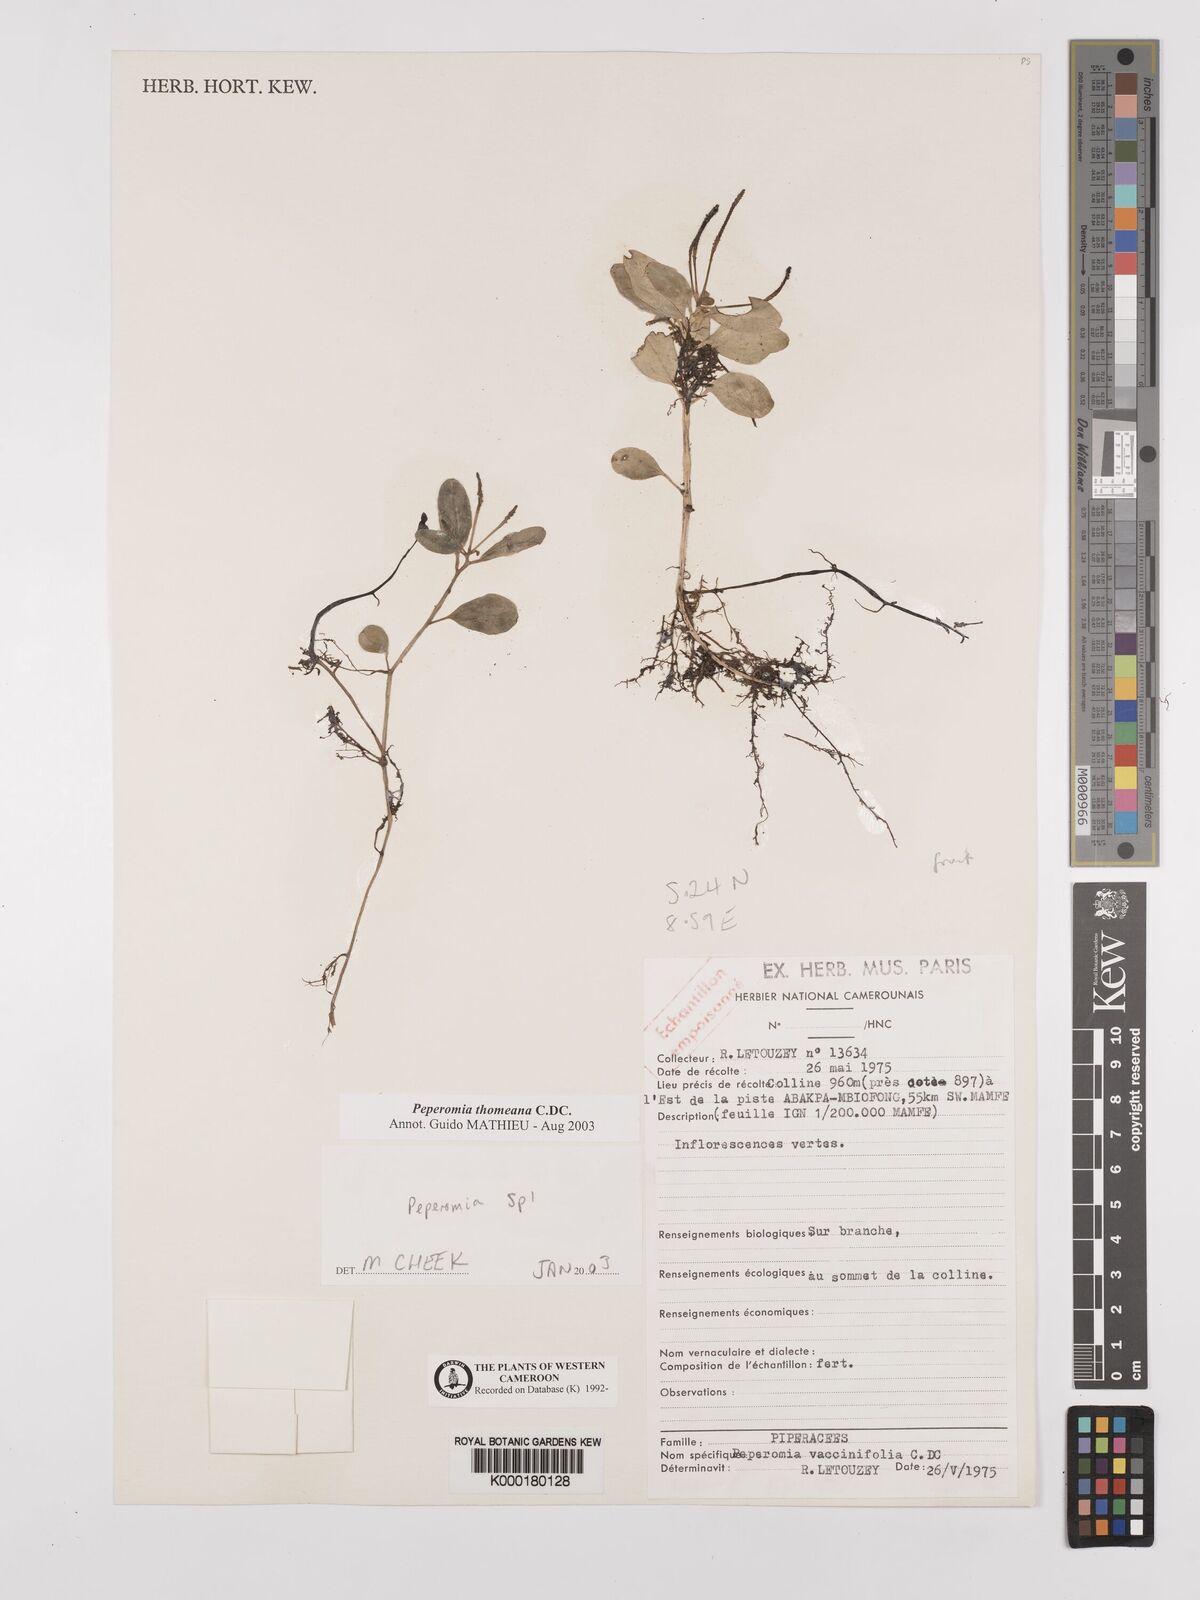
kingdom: Plantae
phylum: Tracheophyta
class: Magnoliopsida
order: Piperales
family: Piperaceae
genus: Peperomia
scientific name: Peperomia thomeana
